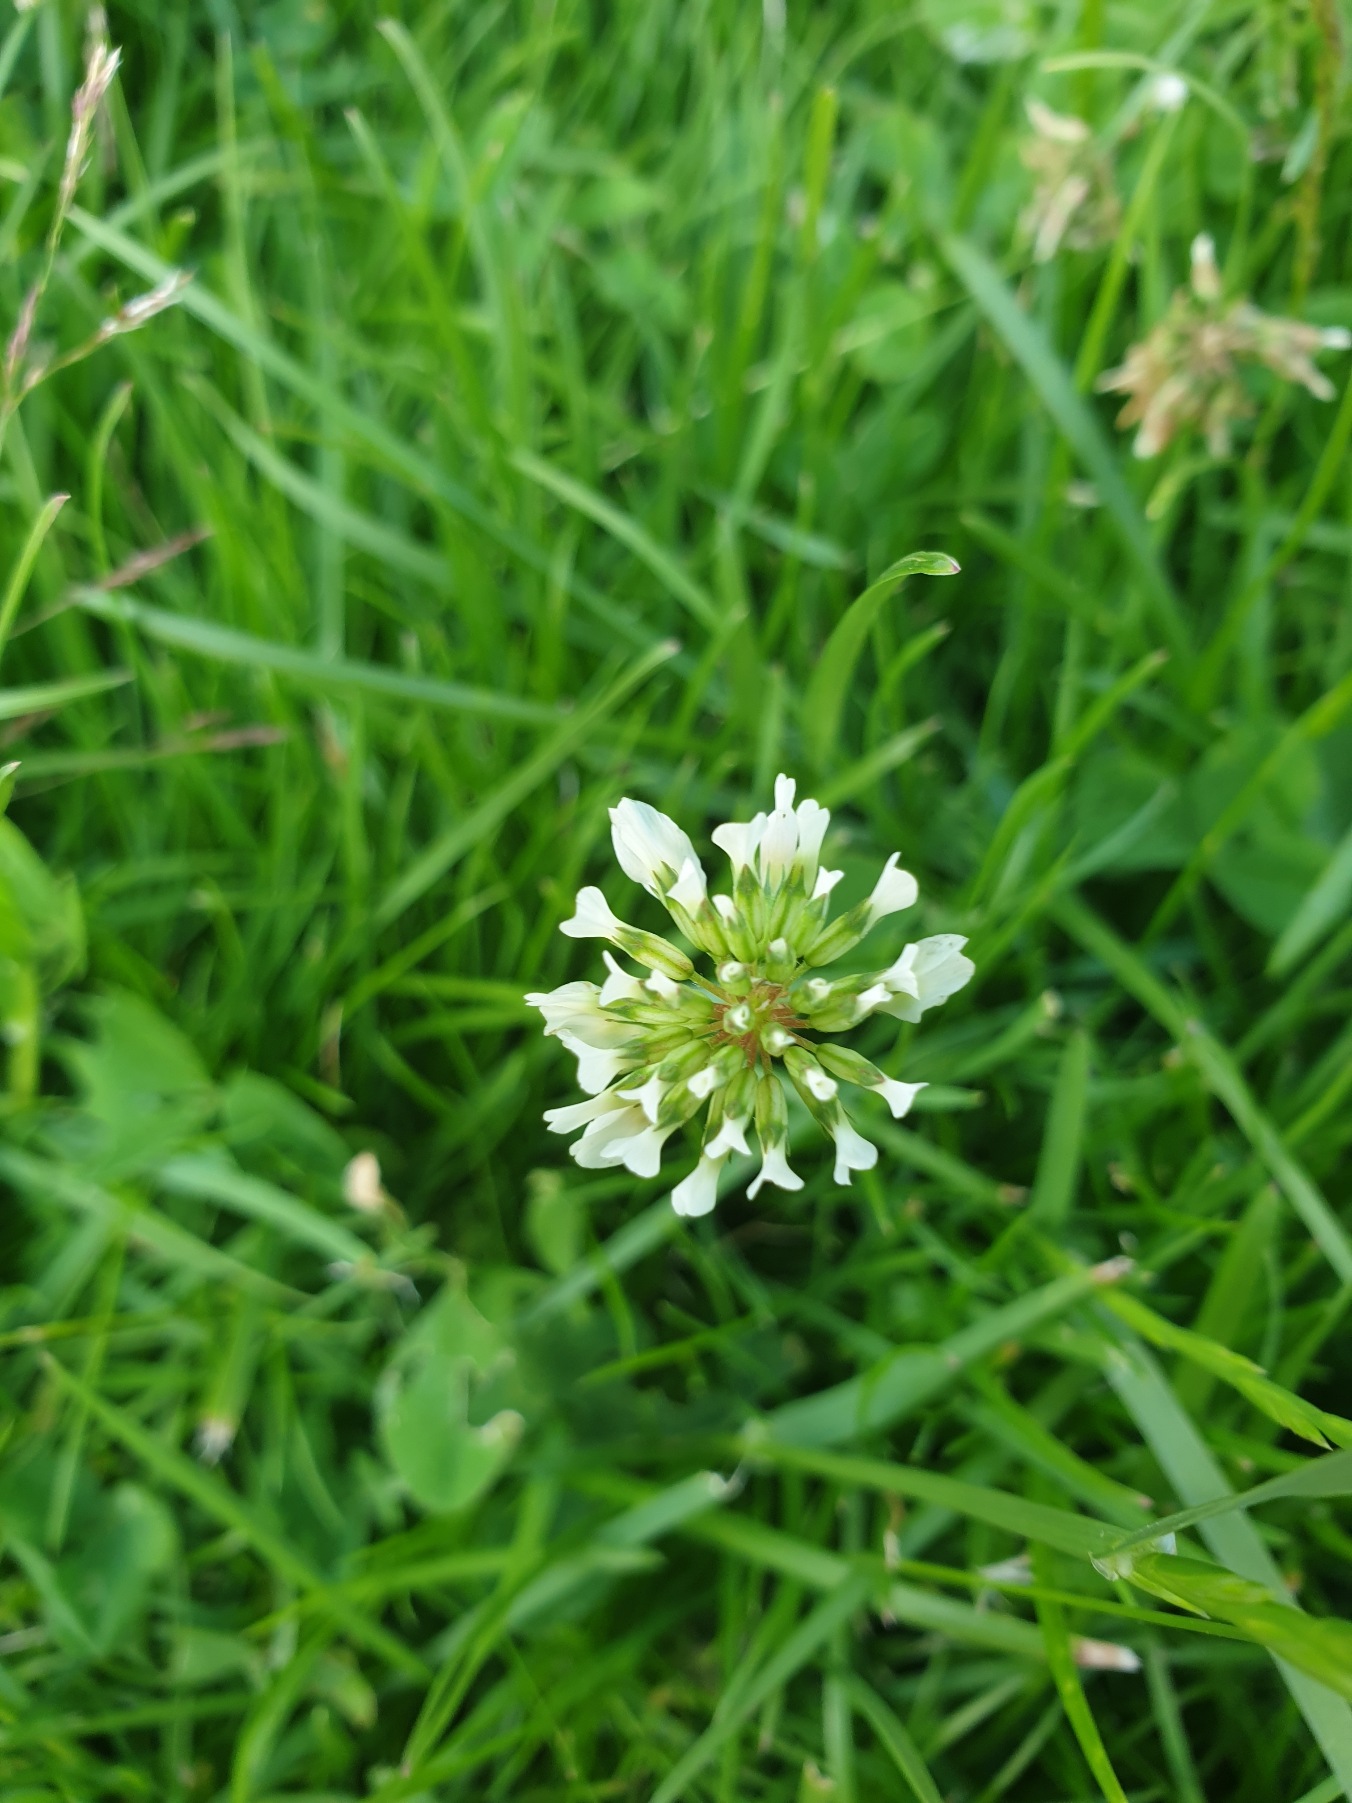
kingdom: Plantae
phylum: Tracheophyta
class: Magnoliopsida
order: Fabales
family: Fabaceae
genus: Trifolium
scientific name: Trifolium repens
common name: Hvid-kløver
